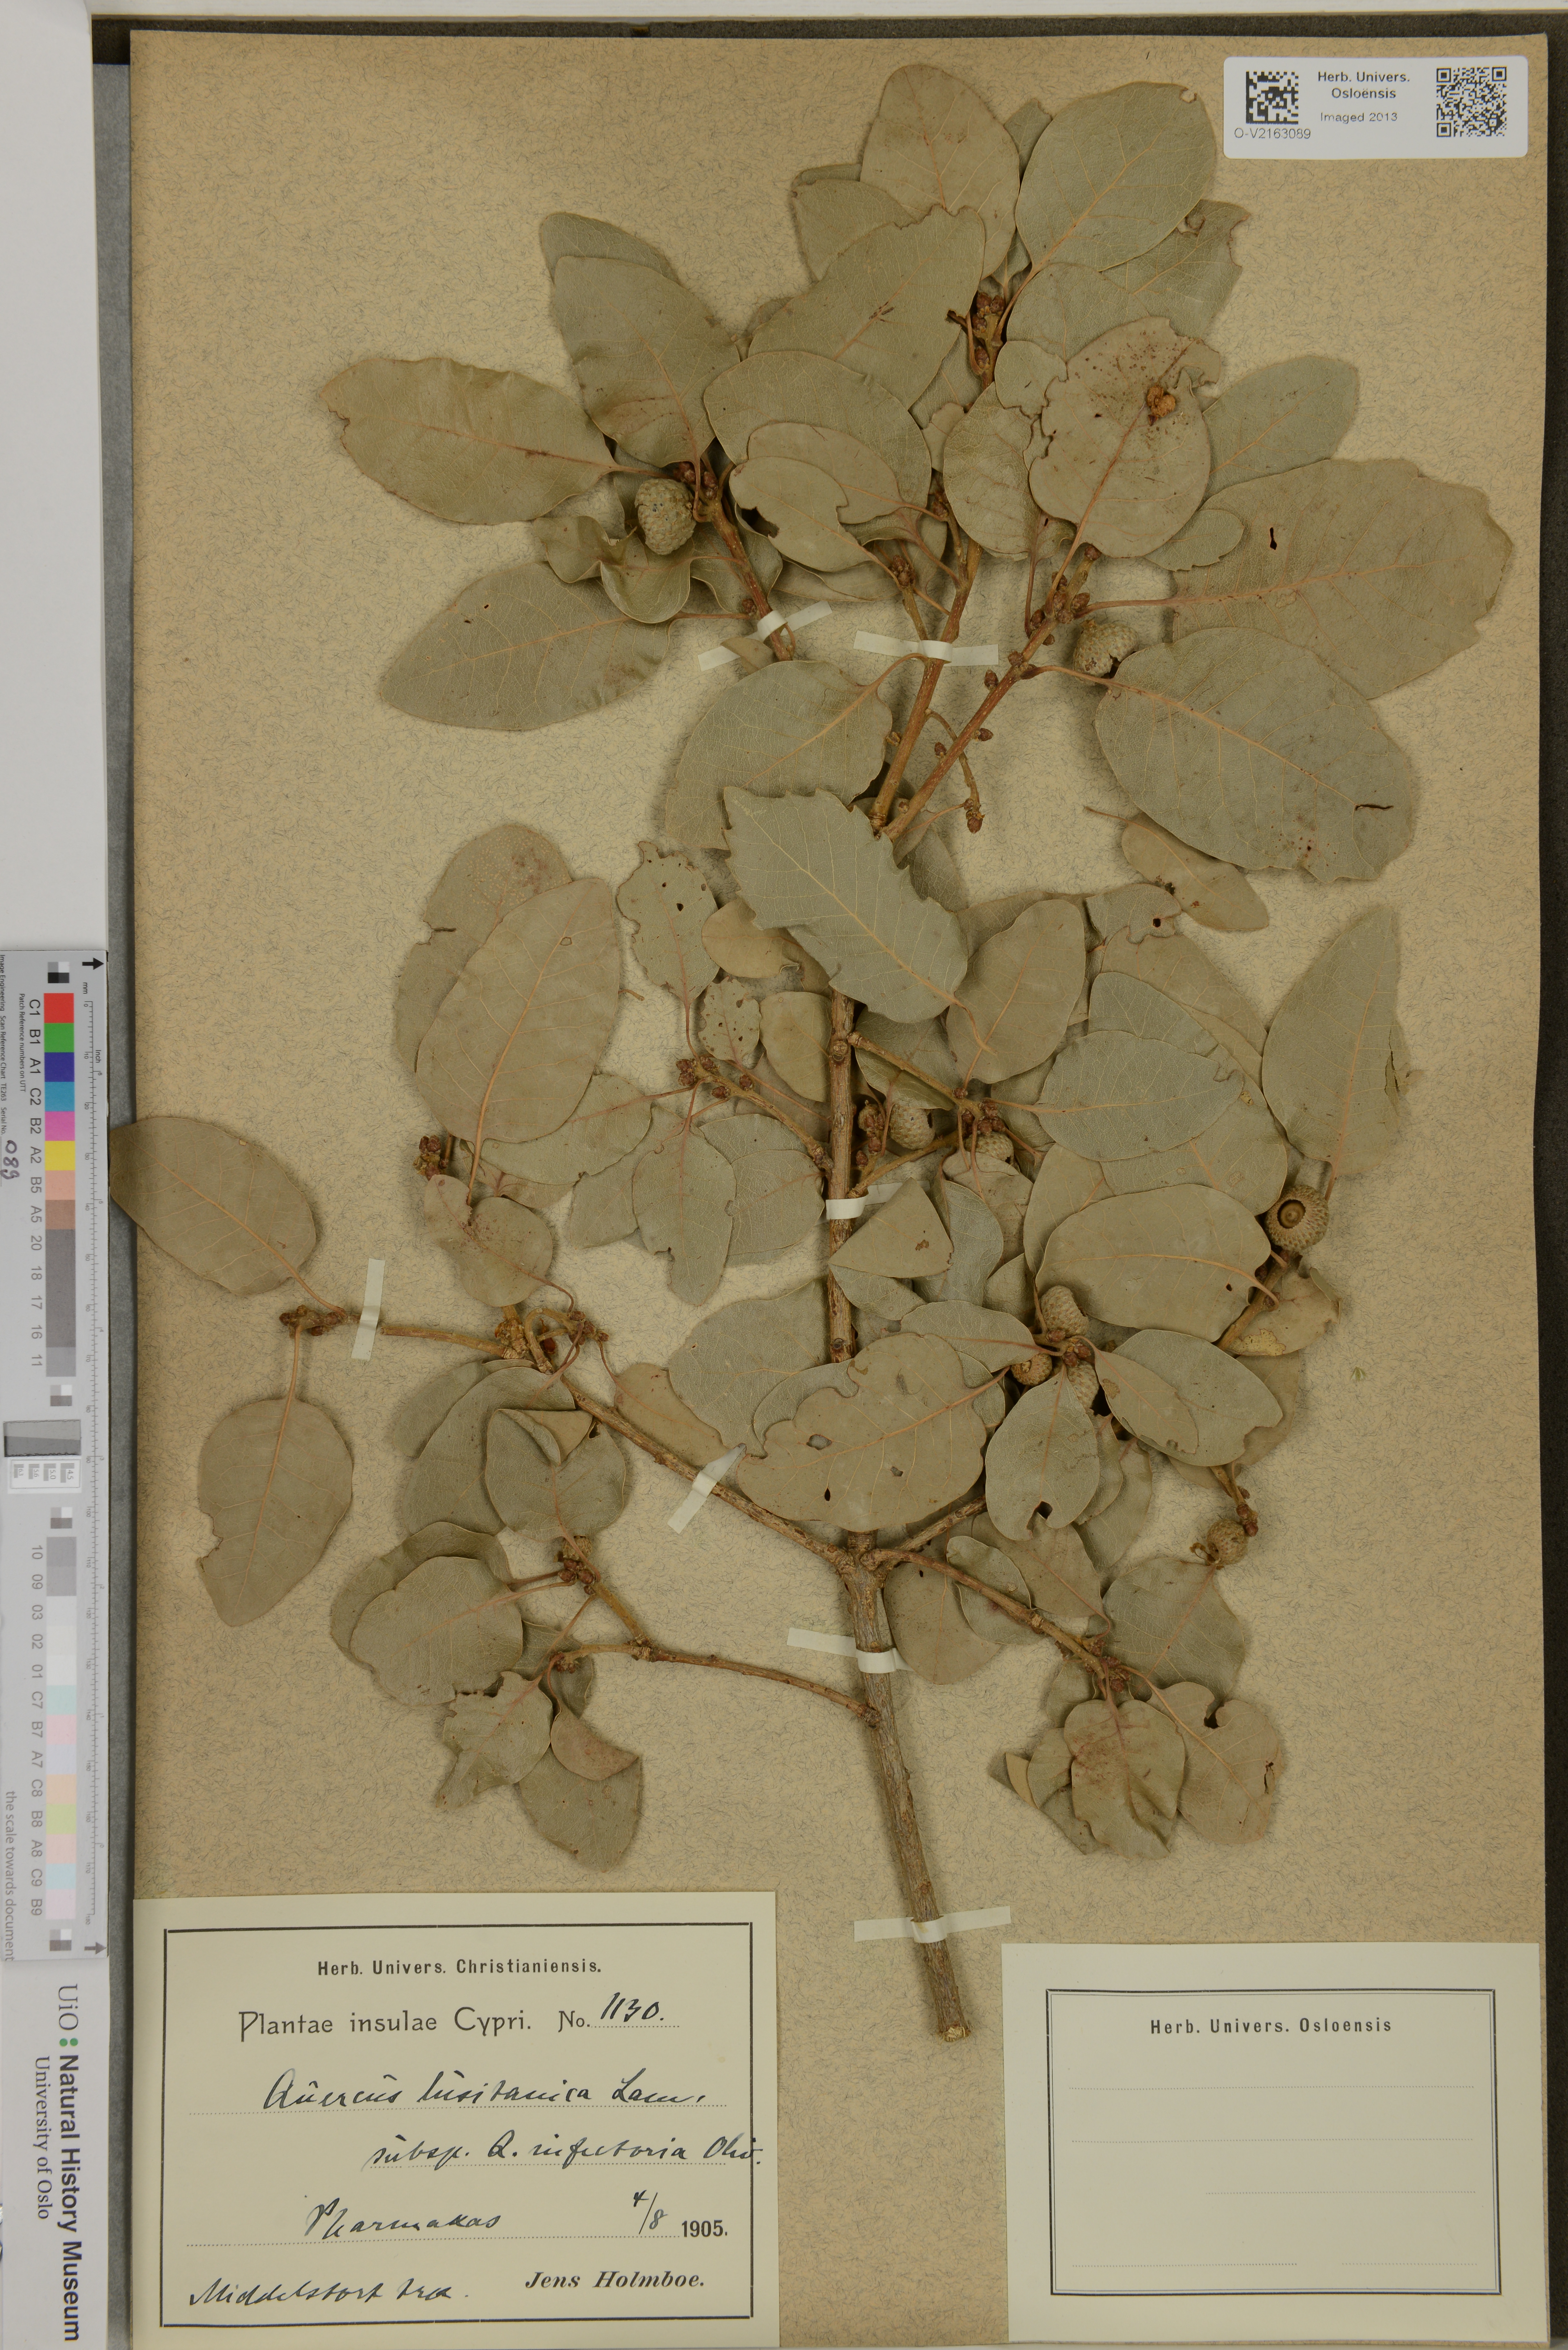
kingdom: Plantae
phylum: Tracheophyta
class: Magnoliopsida
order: Fagales
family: Fagaceae
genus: Quercus
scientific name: Quercus lusitanica
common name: Scrub gall oak
